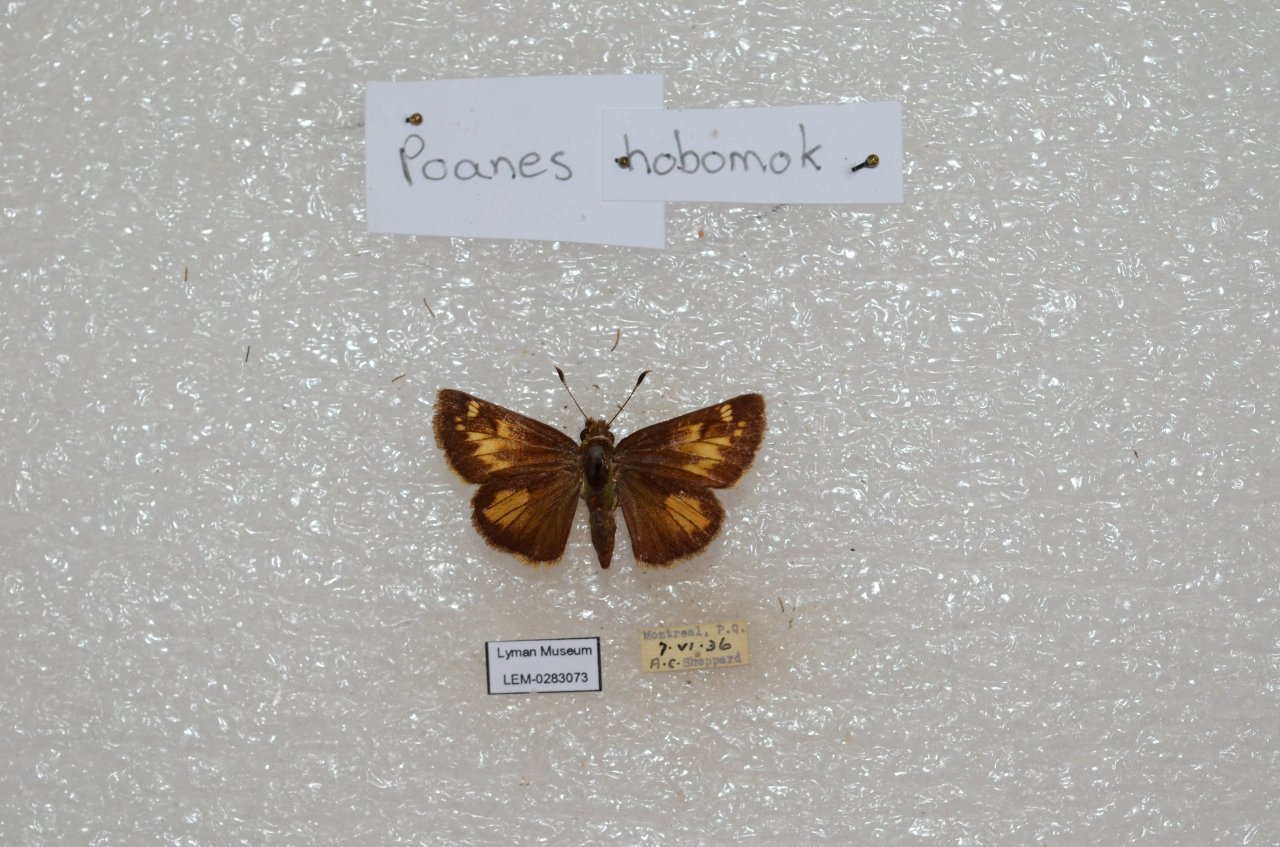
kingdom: Animalia
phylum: Arthropoda
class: Insecta
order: Lepidoptera
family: Hesperiidae
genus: Lon
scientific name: Lon hobomok
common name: Hobomok Skipper
